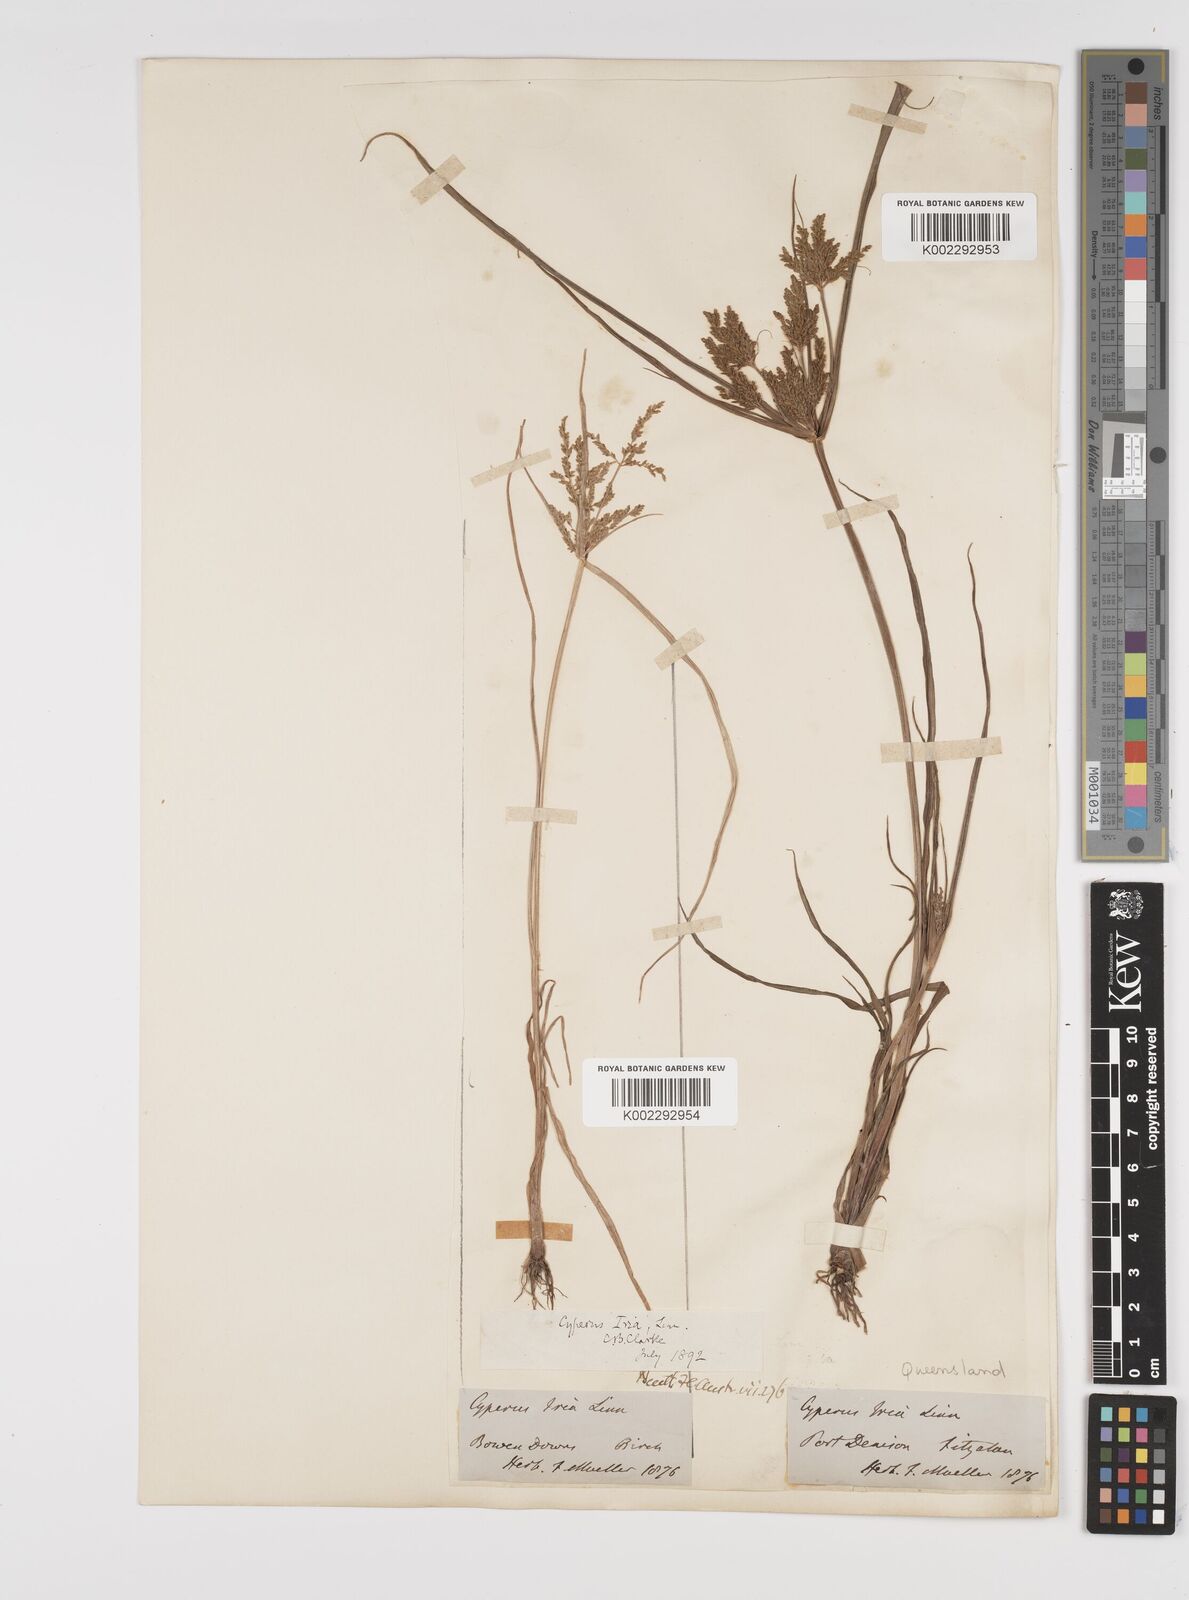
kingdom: Plantae
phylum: Tracheophyta
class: Liliopsida
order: Poales
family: Cyperaceae
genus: Cyperus
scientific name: Cyperus iria
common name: Ricefield flatsedge
